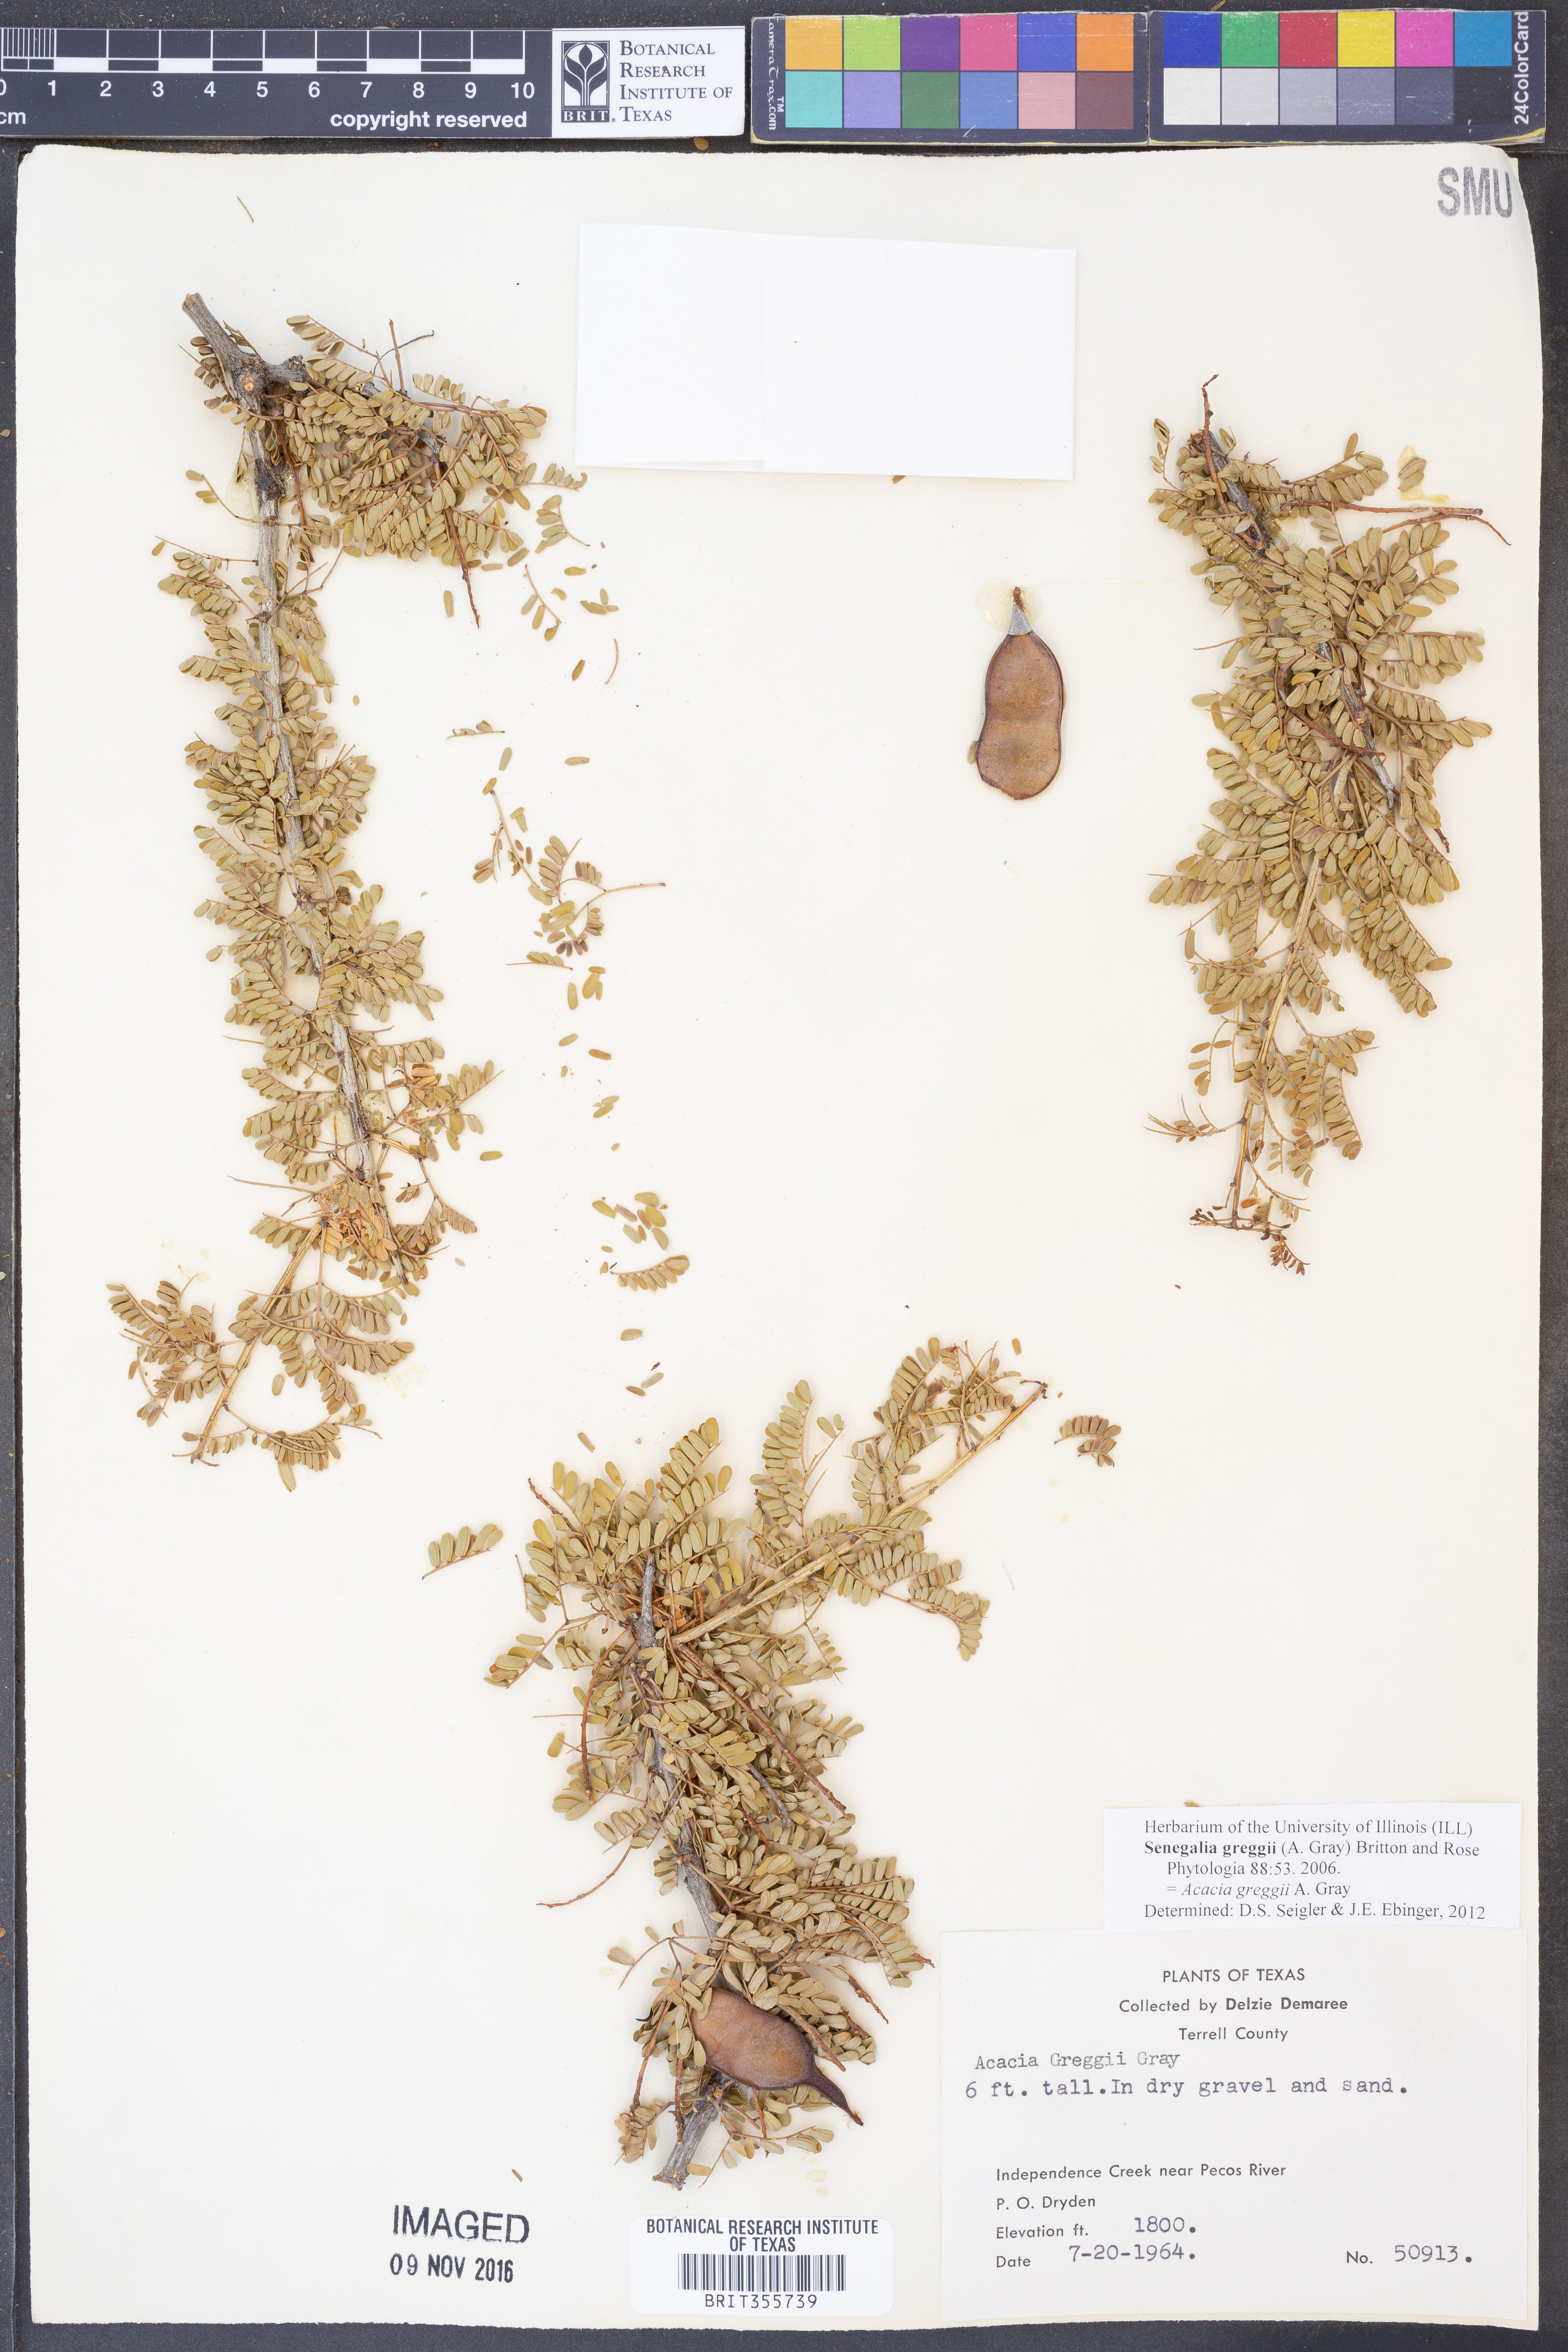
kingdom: Plantae
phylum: Tracheophyta
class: Magnoliopsida
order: Fabales
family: Fabaceae
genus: Senegalia
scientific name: Senegalia greggii
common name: Texas-mimosa
